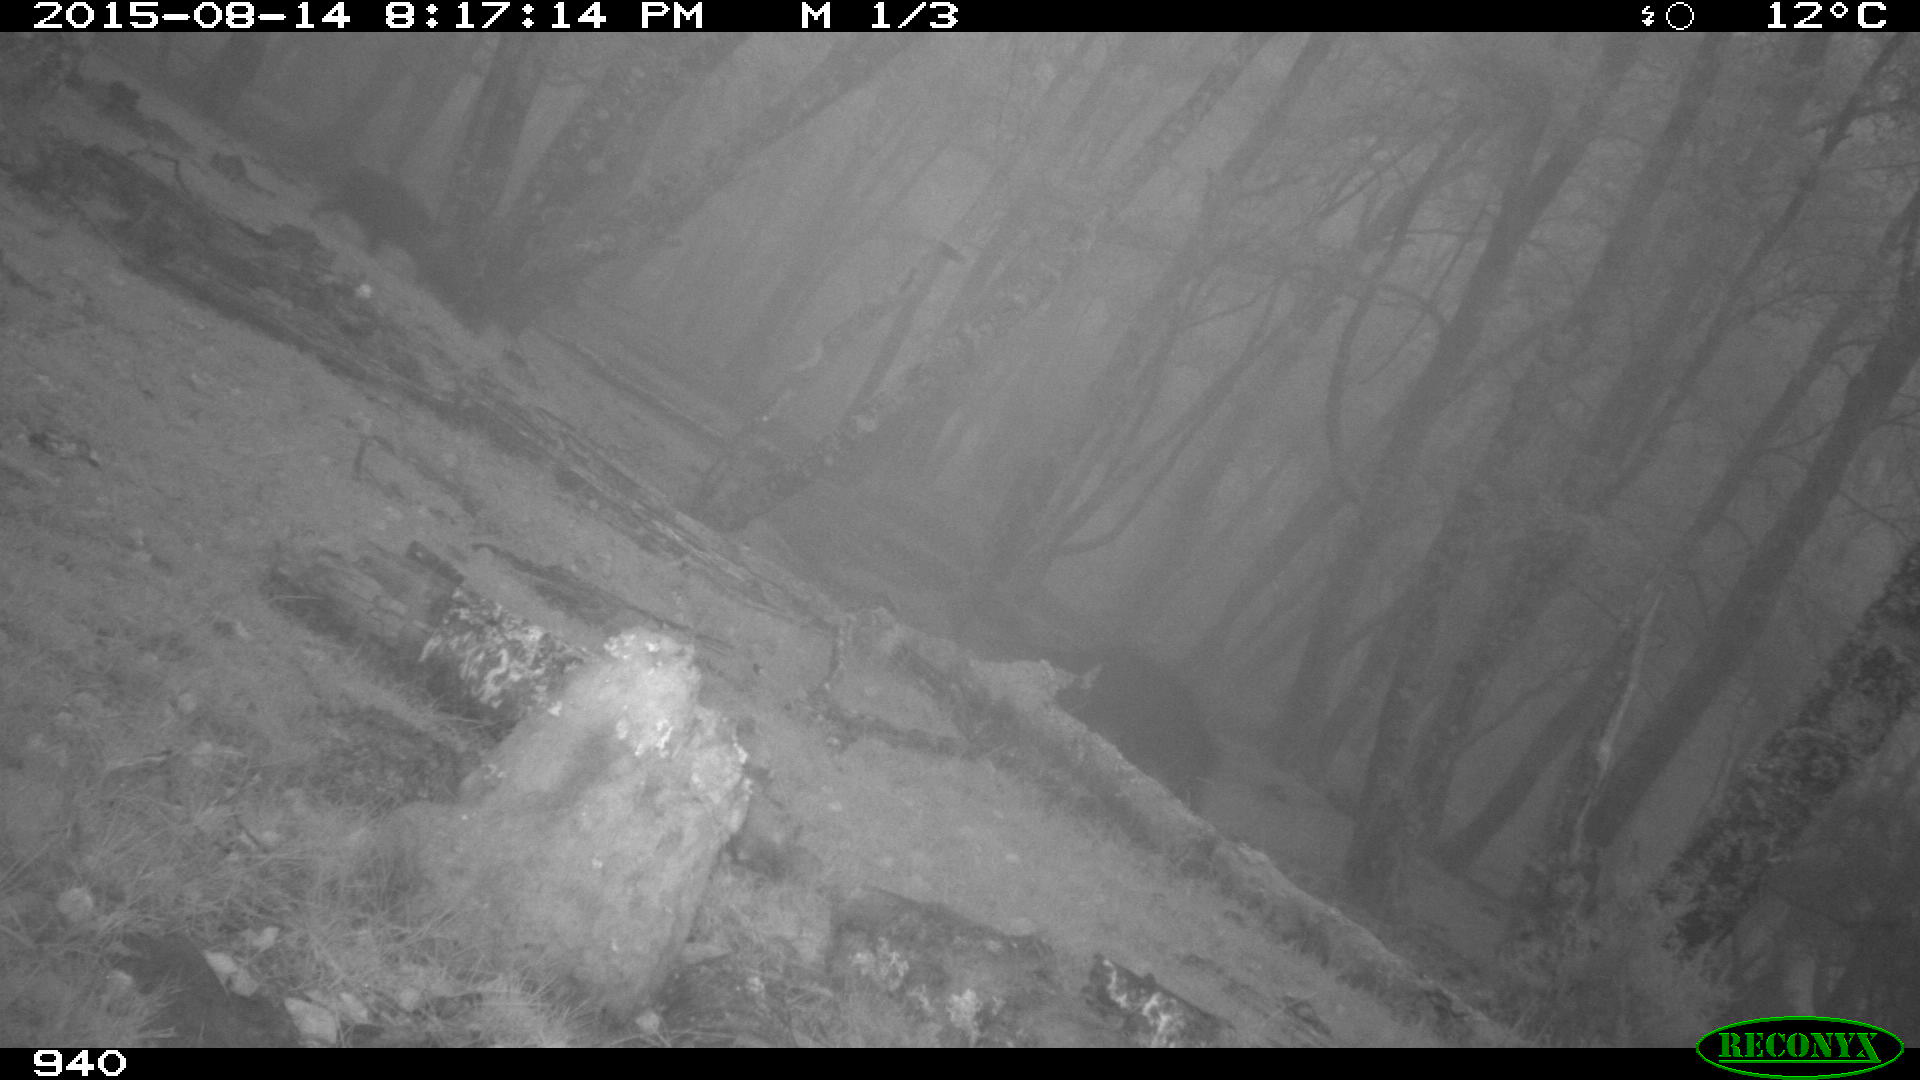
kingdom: Animalia
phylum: Chordata
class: Mammalia
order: Artiodactyla
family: Suidae
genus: Sus
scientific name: Sus scrofa
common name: Wild boar
